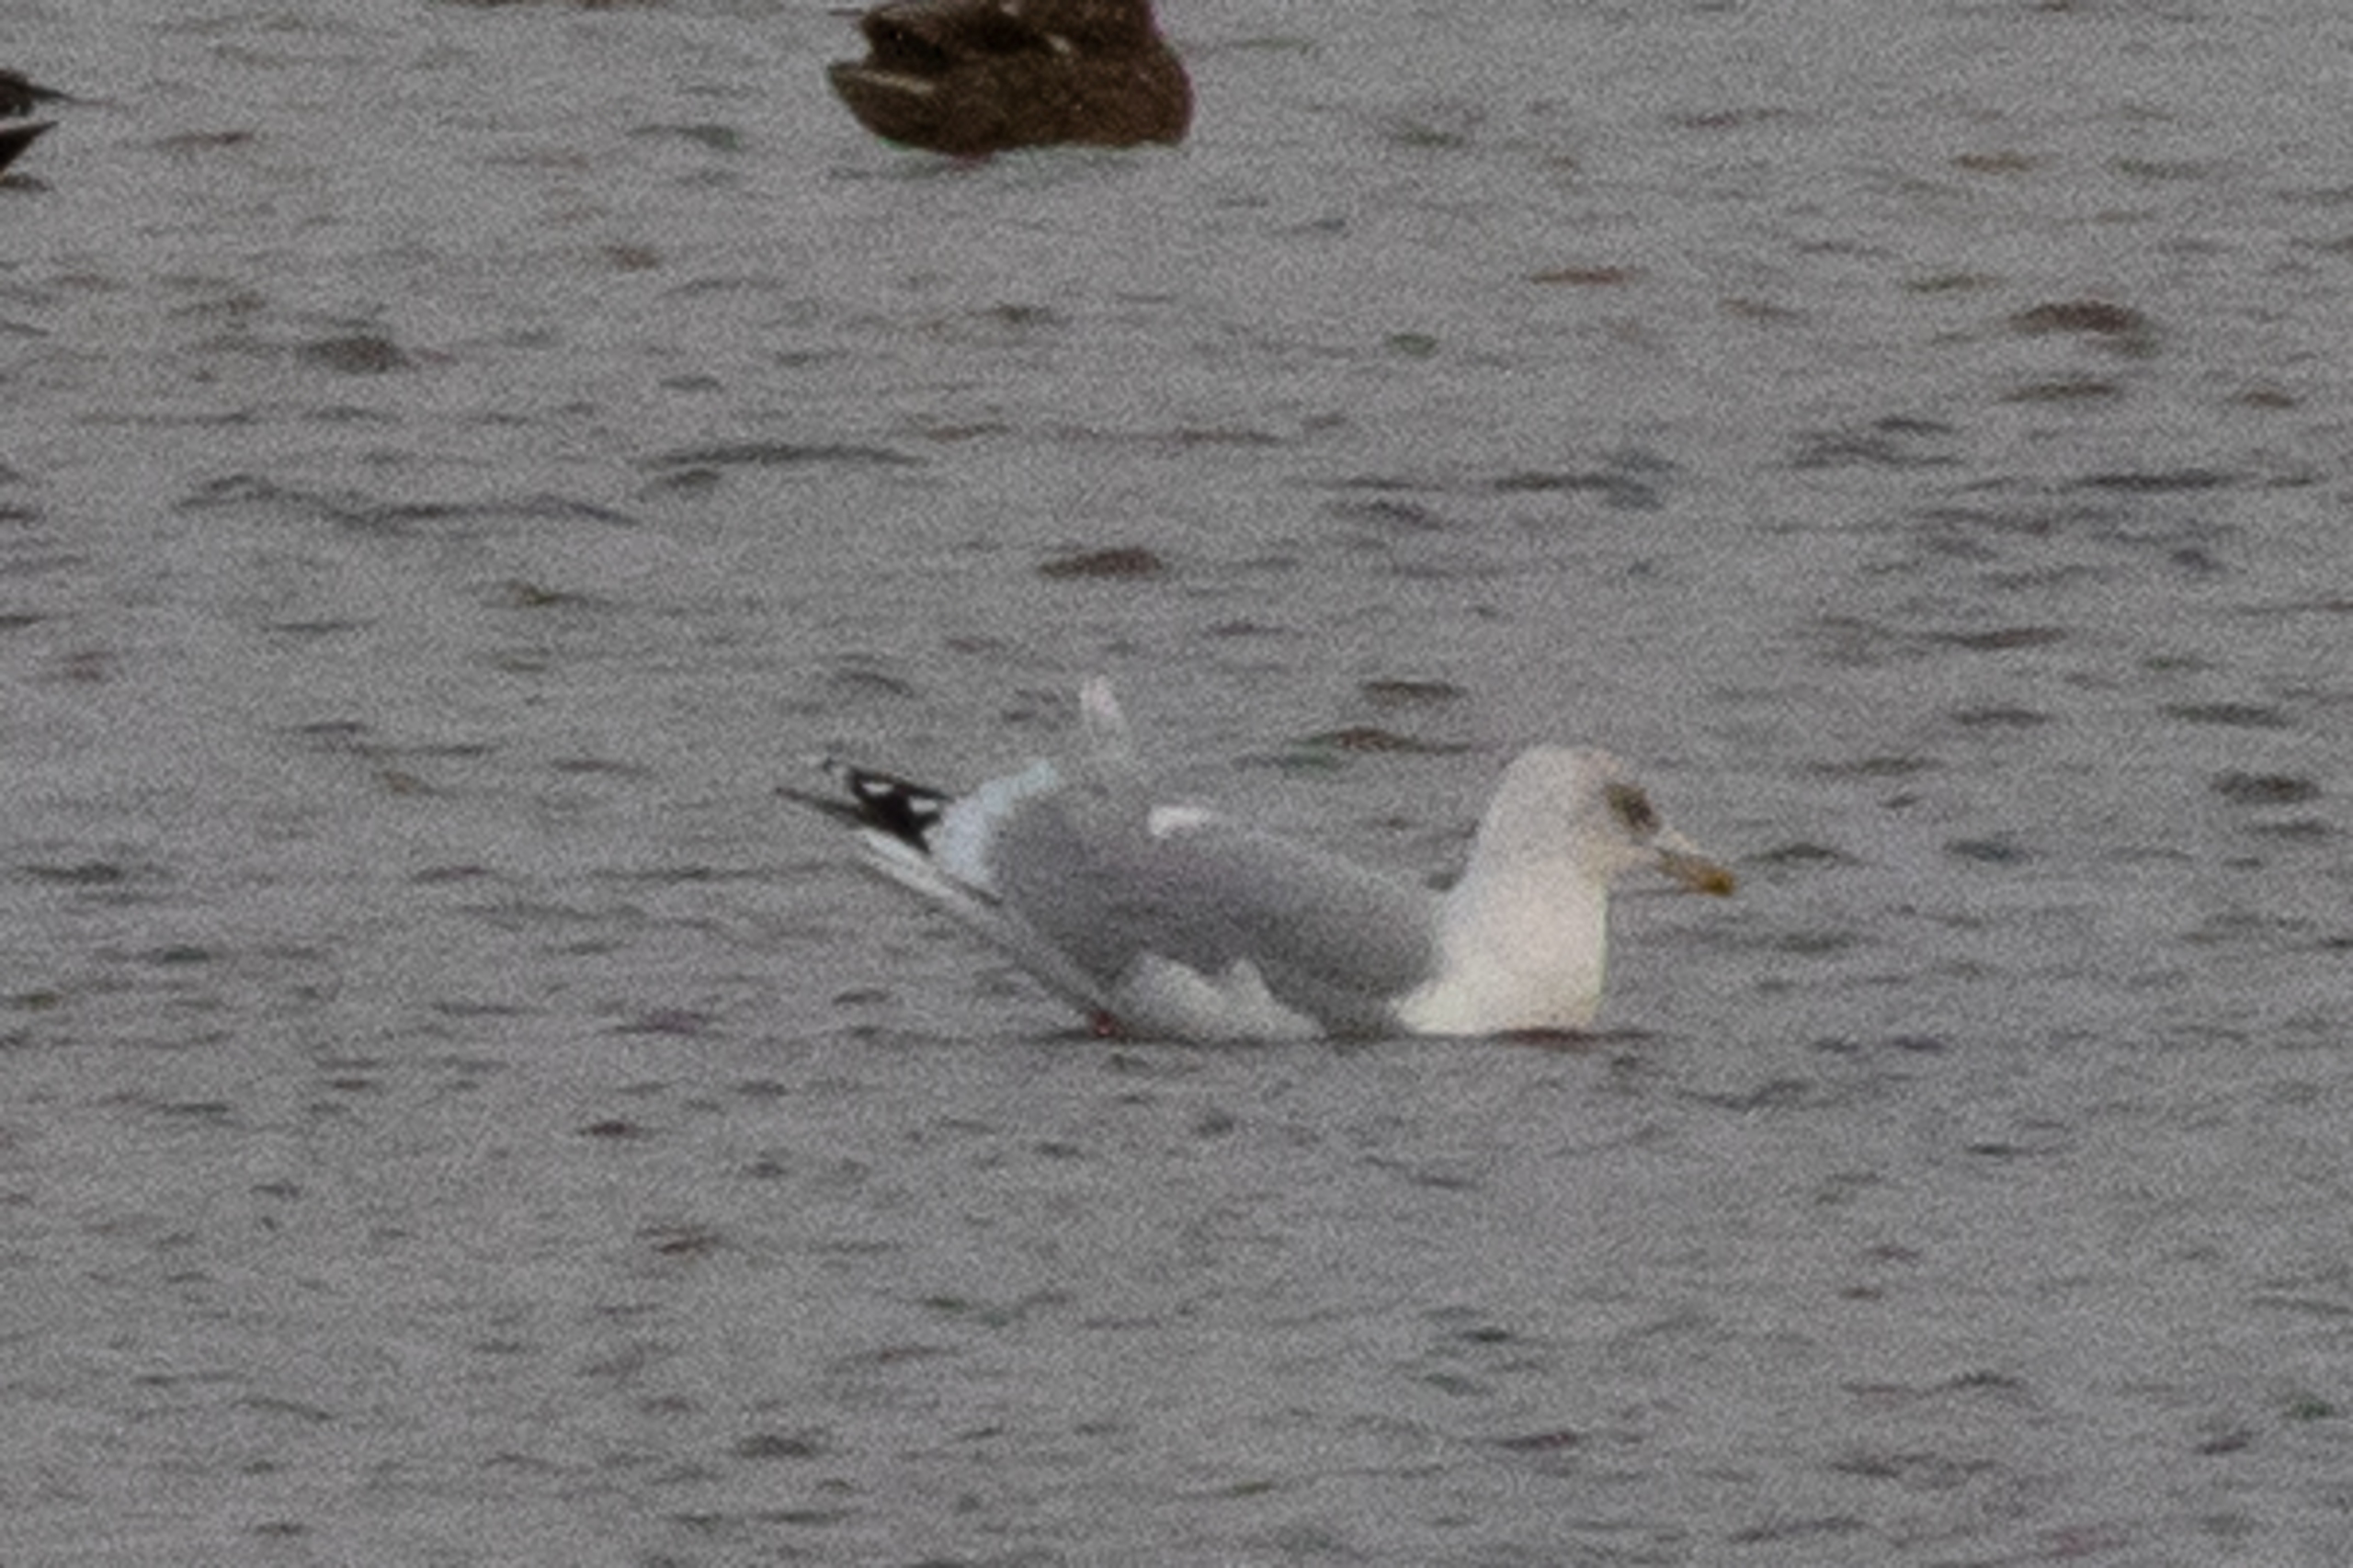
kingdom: Animalia
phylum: Chordata
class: Aves
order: Charadriiformes
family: Laridae
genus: Larus
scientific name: Larus argentatus
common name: Sølvmåge
